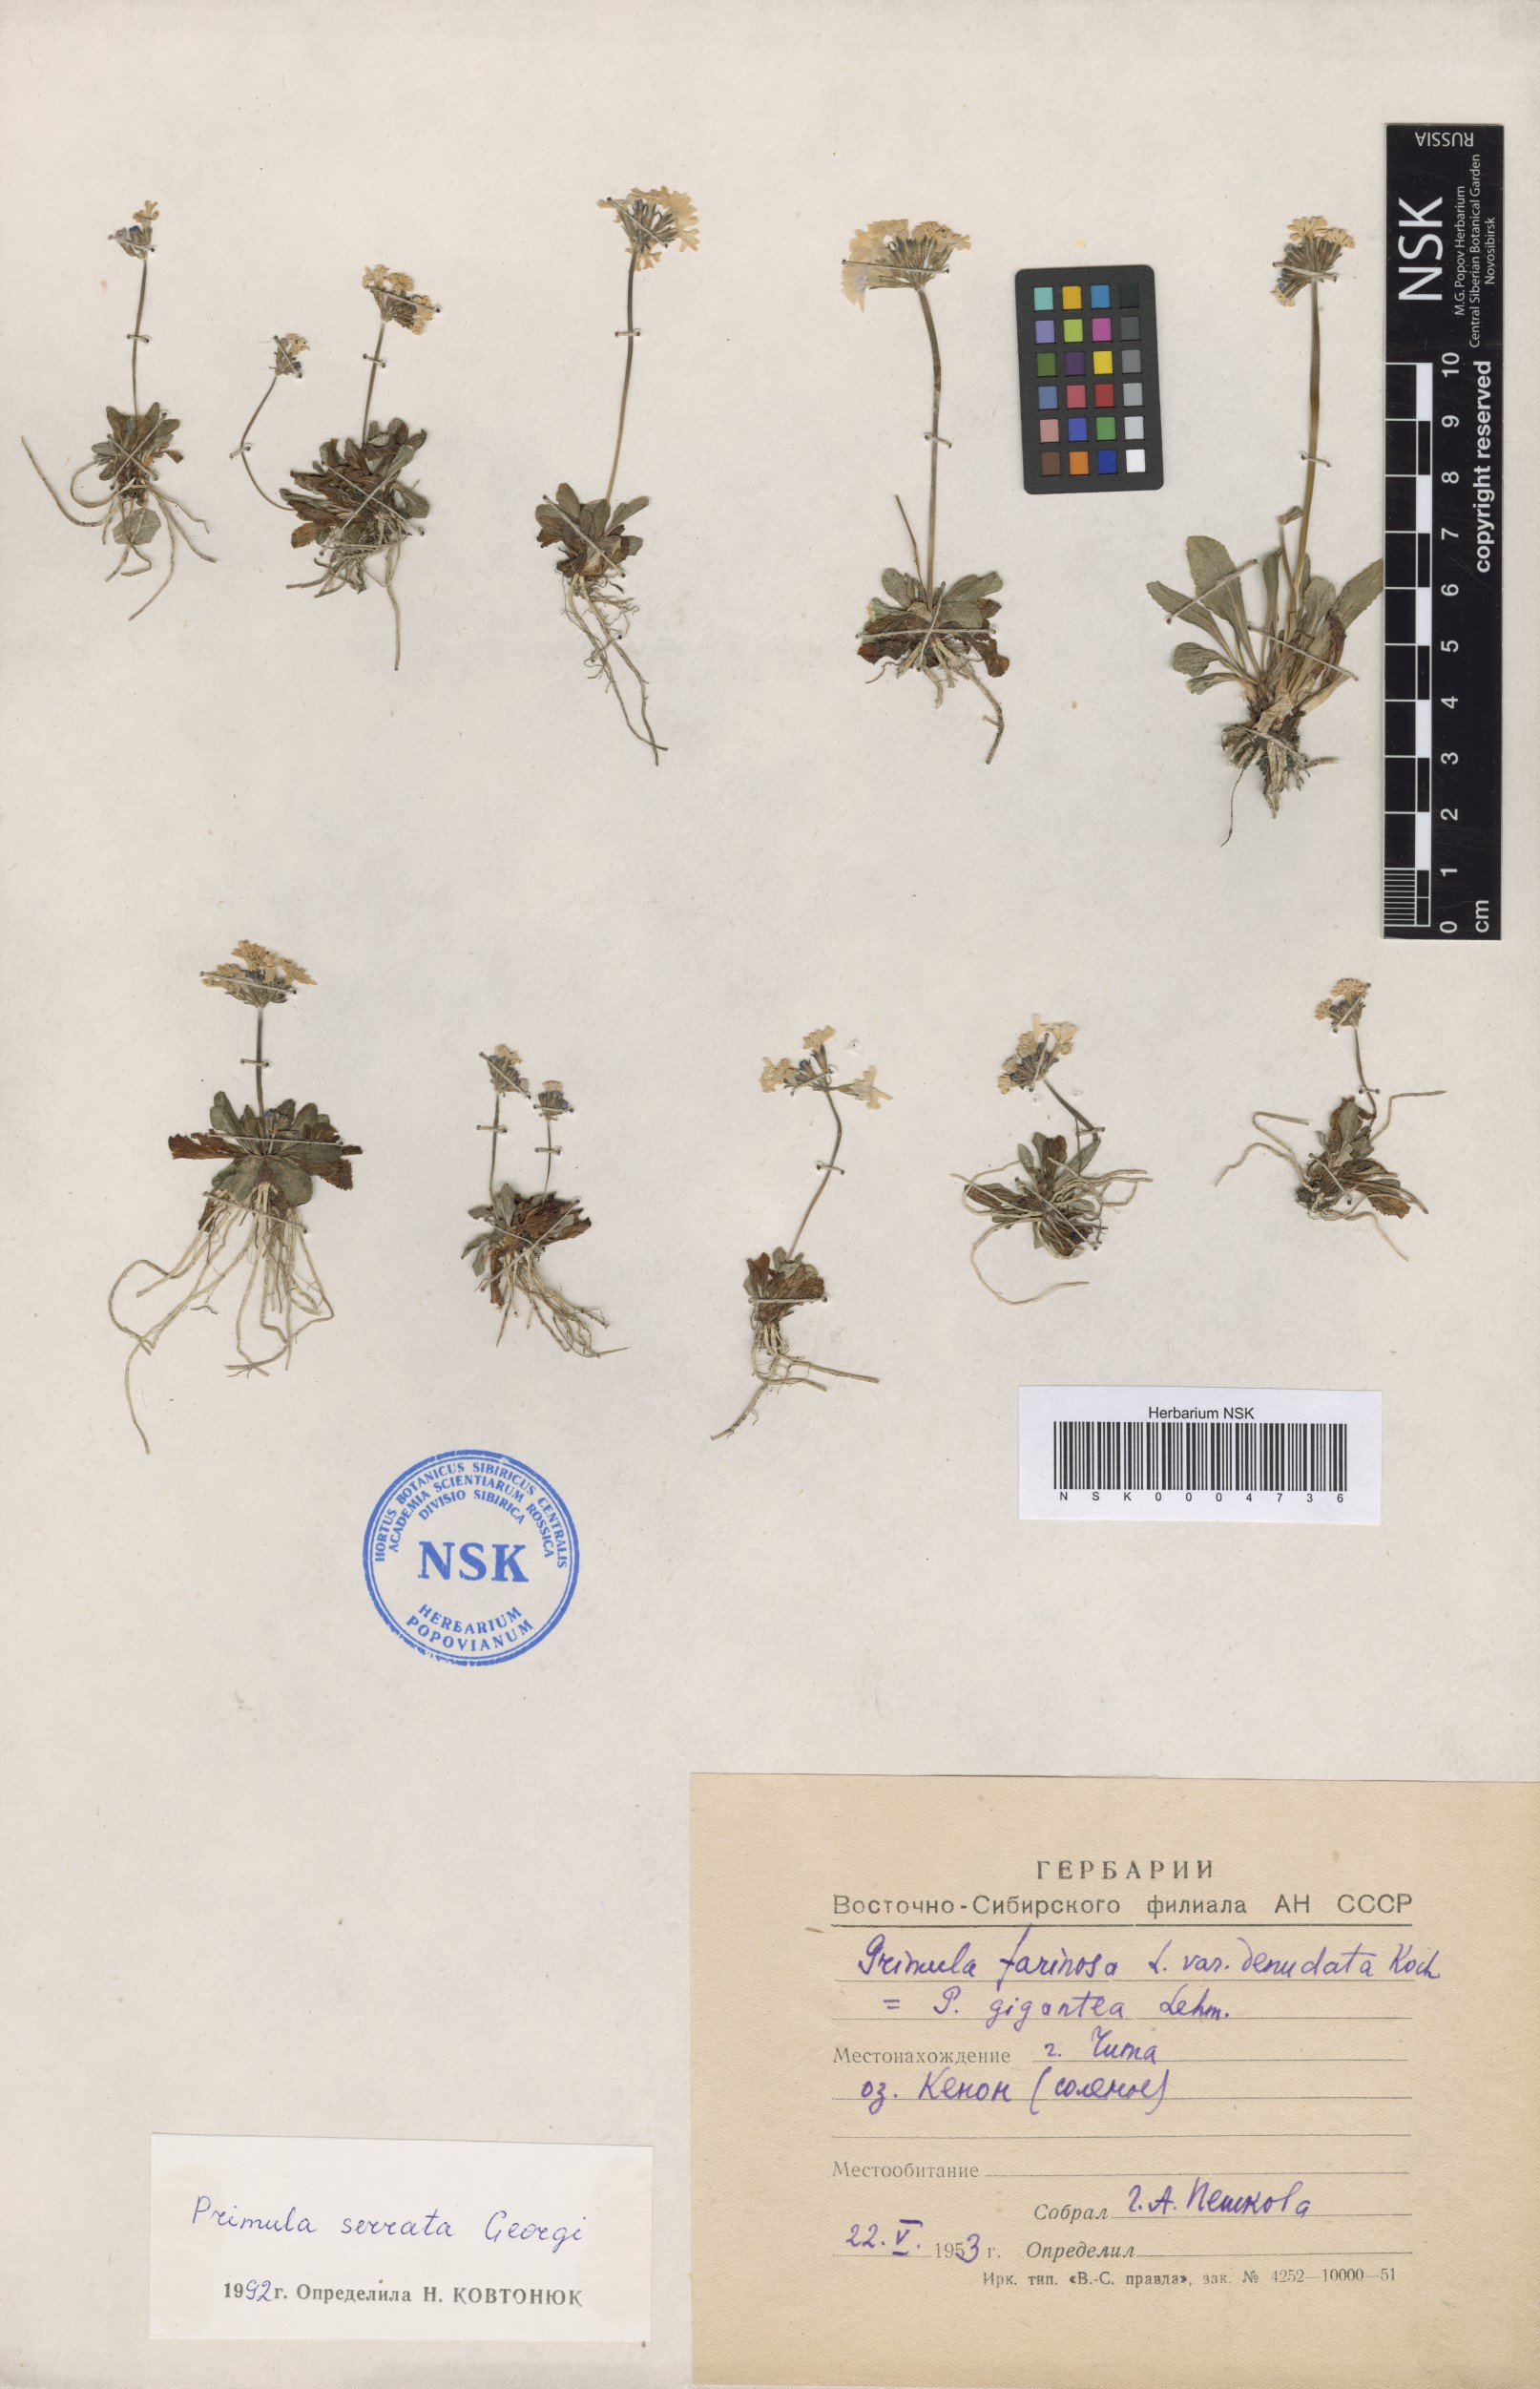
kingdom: Plantae
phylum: Tracheophyta
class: Magnoliopsida
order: Ericales
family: Primulaceae
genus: Primula
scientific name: Primula serrata
